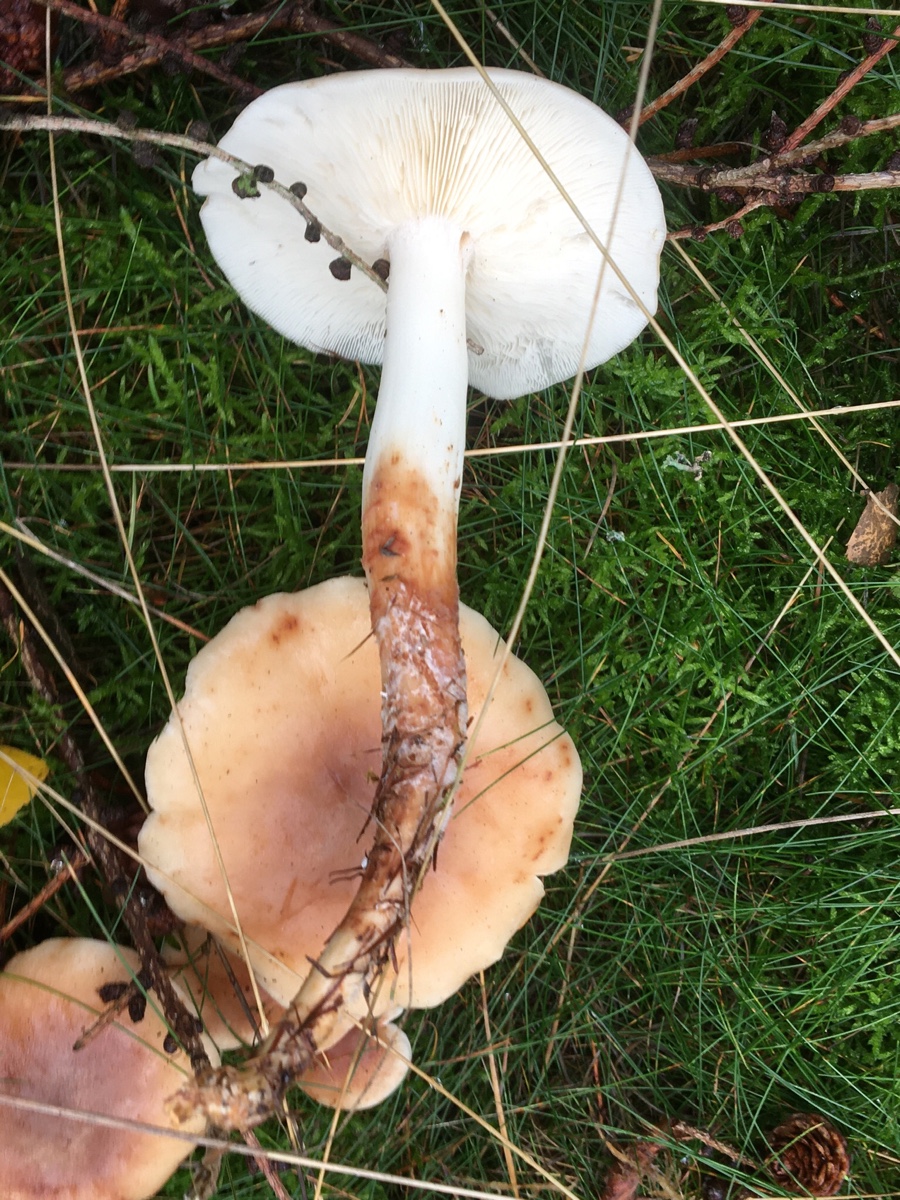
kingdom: Fungi
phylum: Basidiomycota
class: Agaricomycetes
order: Agaricales
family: Omphalotaceae
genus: Rhodocollybia
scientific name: Rhodocollybia maculata
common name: plettet fladhat
